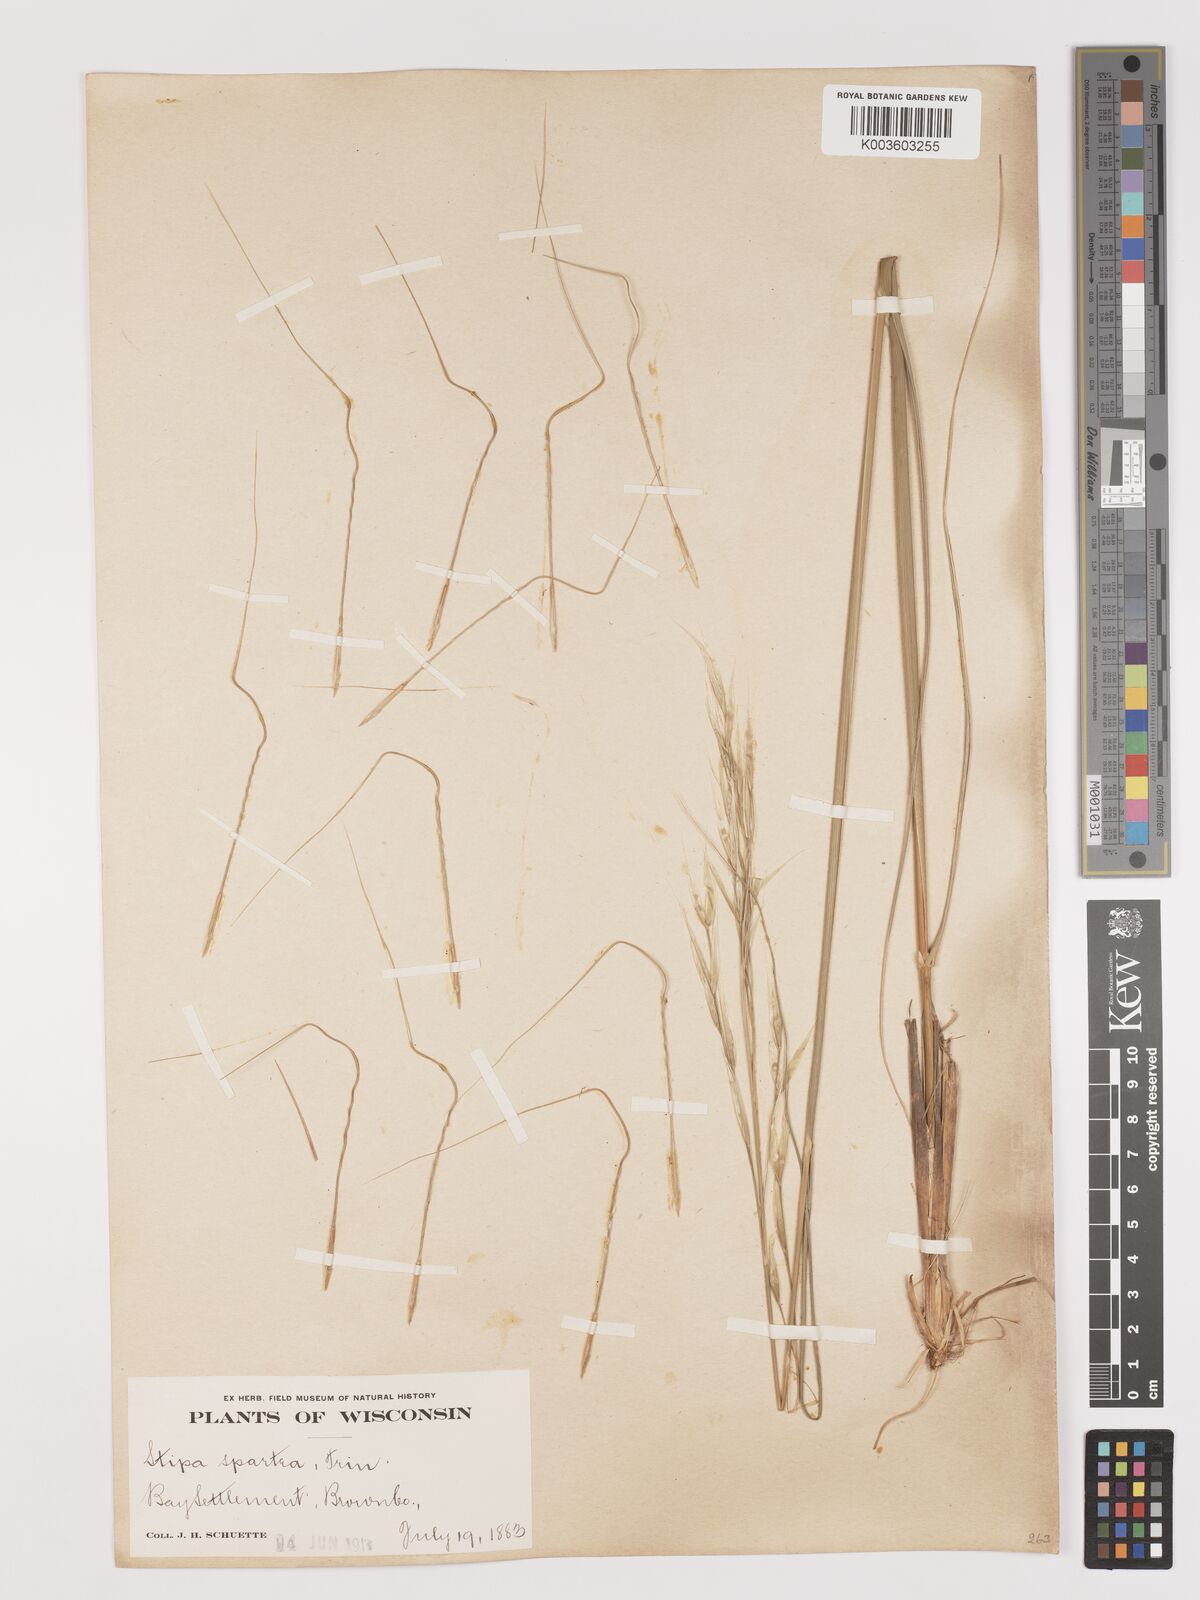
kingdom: Plantae
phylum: Tracheophyta
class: Liliopsida
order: Poales
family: Poaceae
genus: Hesperostipa
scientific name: Hesperostipa spartea
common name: Porcupine grass
